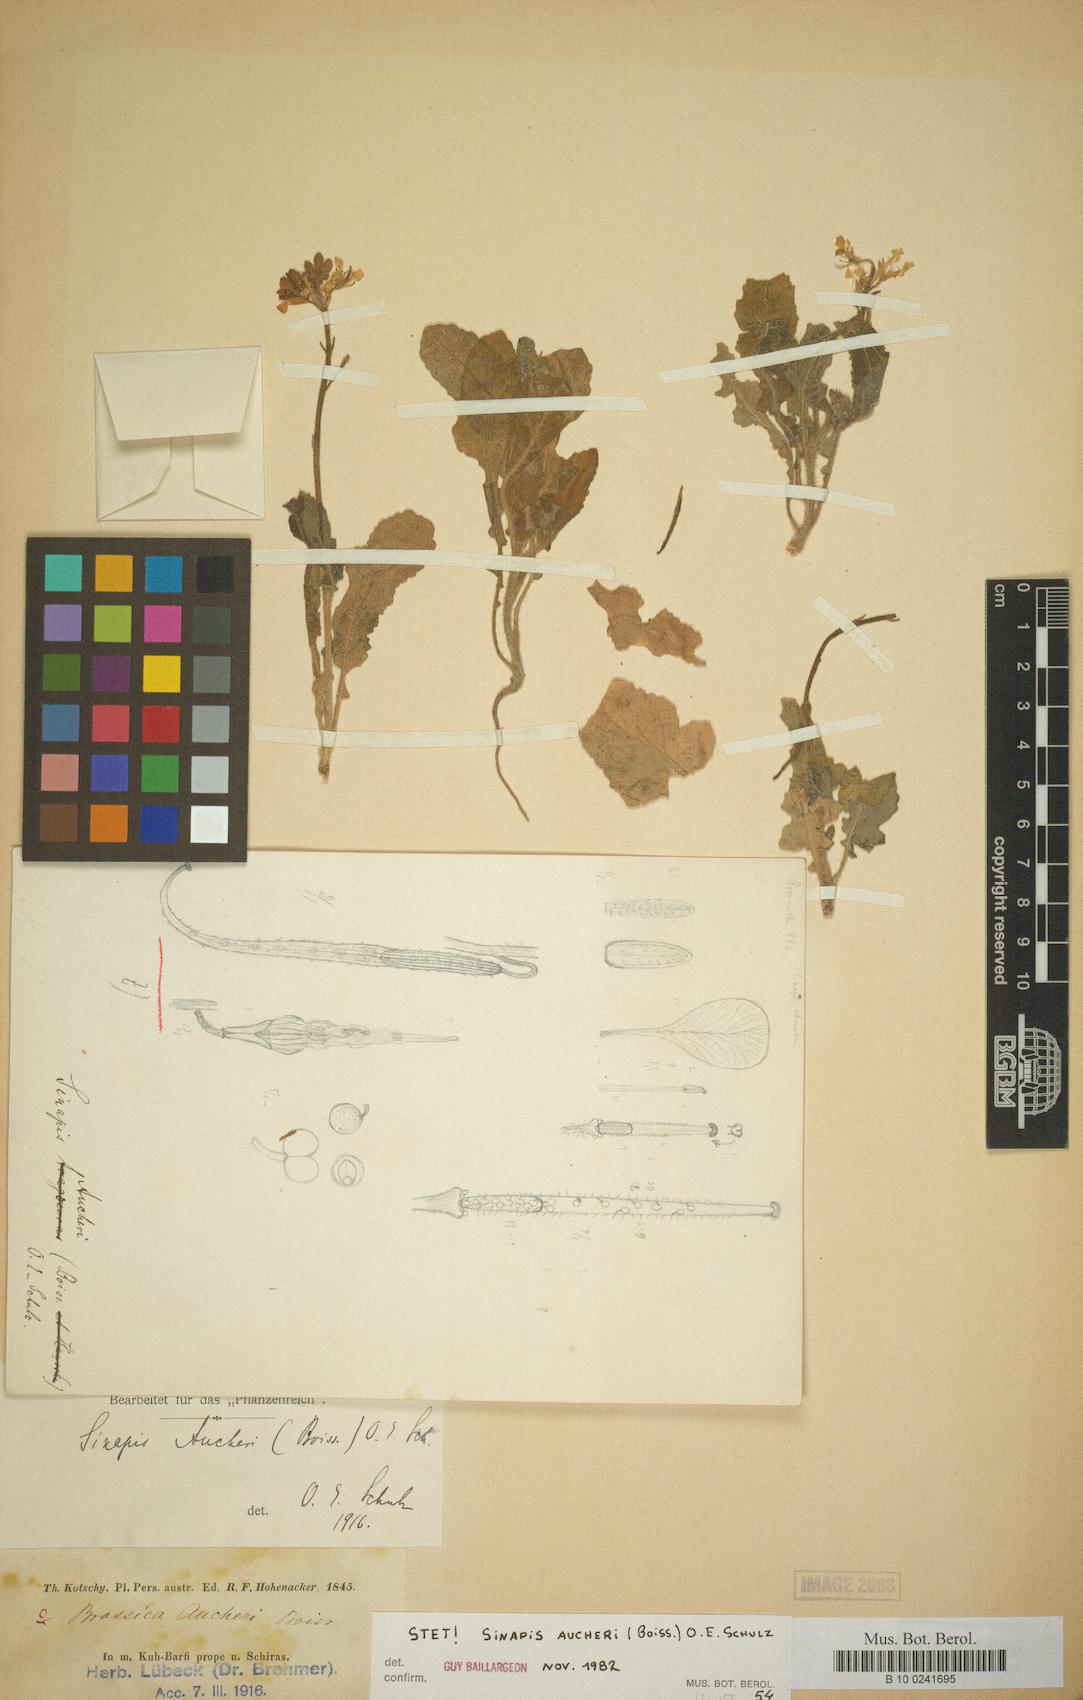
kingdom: Plantae
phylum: Tracheophyta
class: Magnoliopsida
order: Brassicales
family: Brassicaceae
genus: Brassica
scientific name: Brassica aucheri
